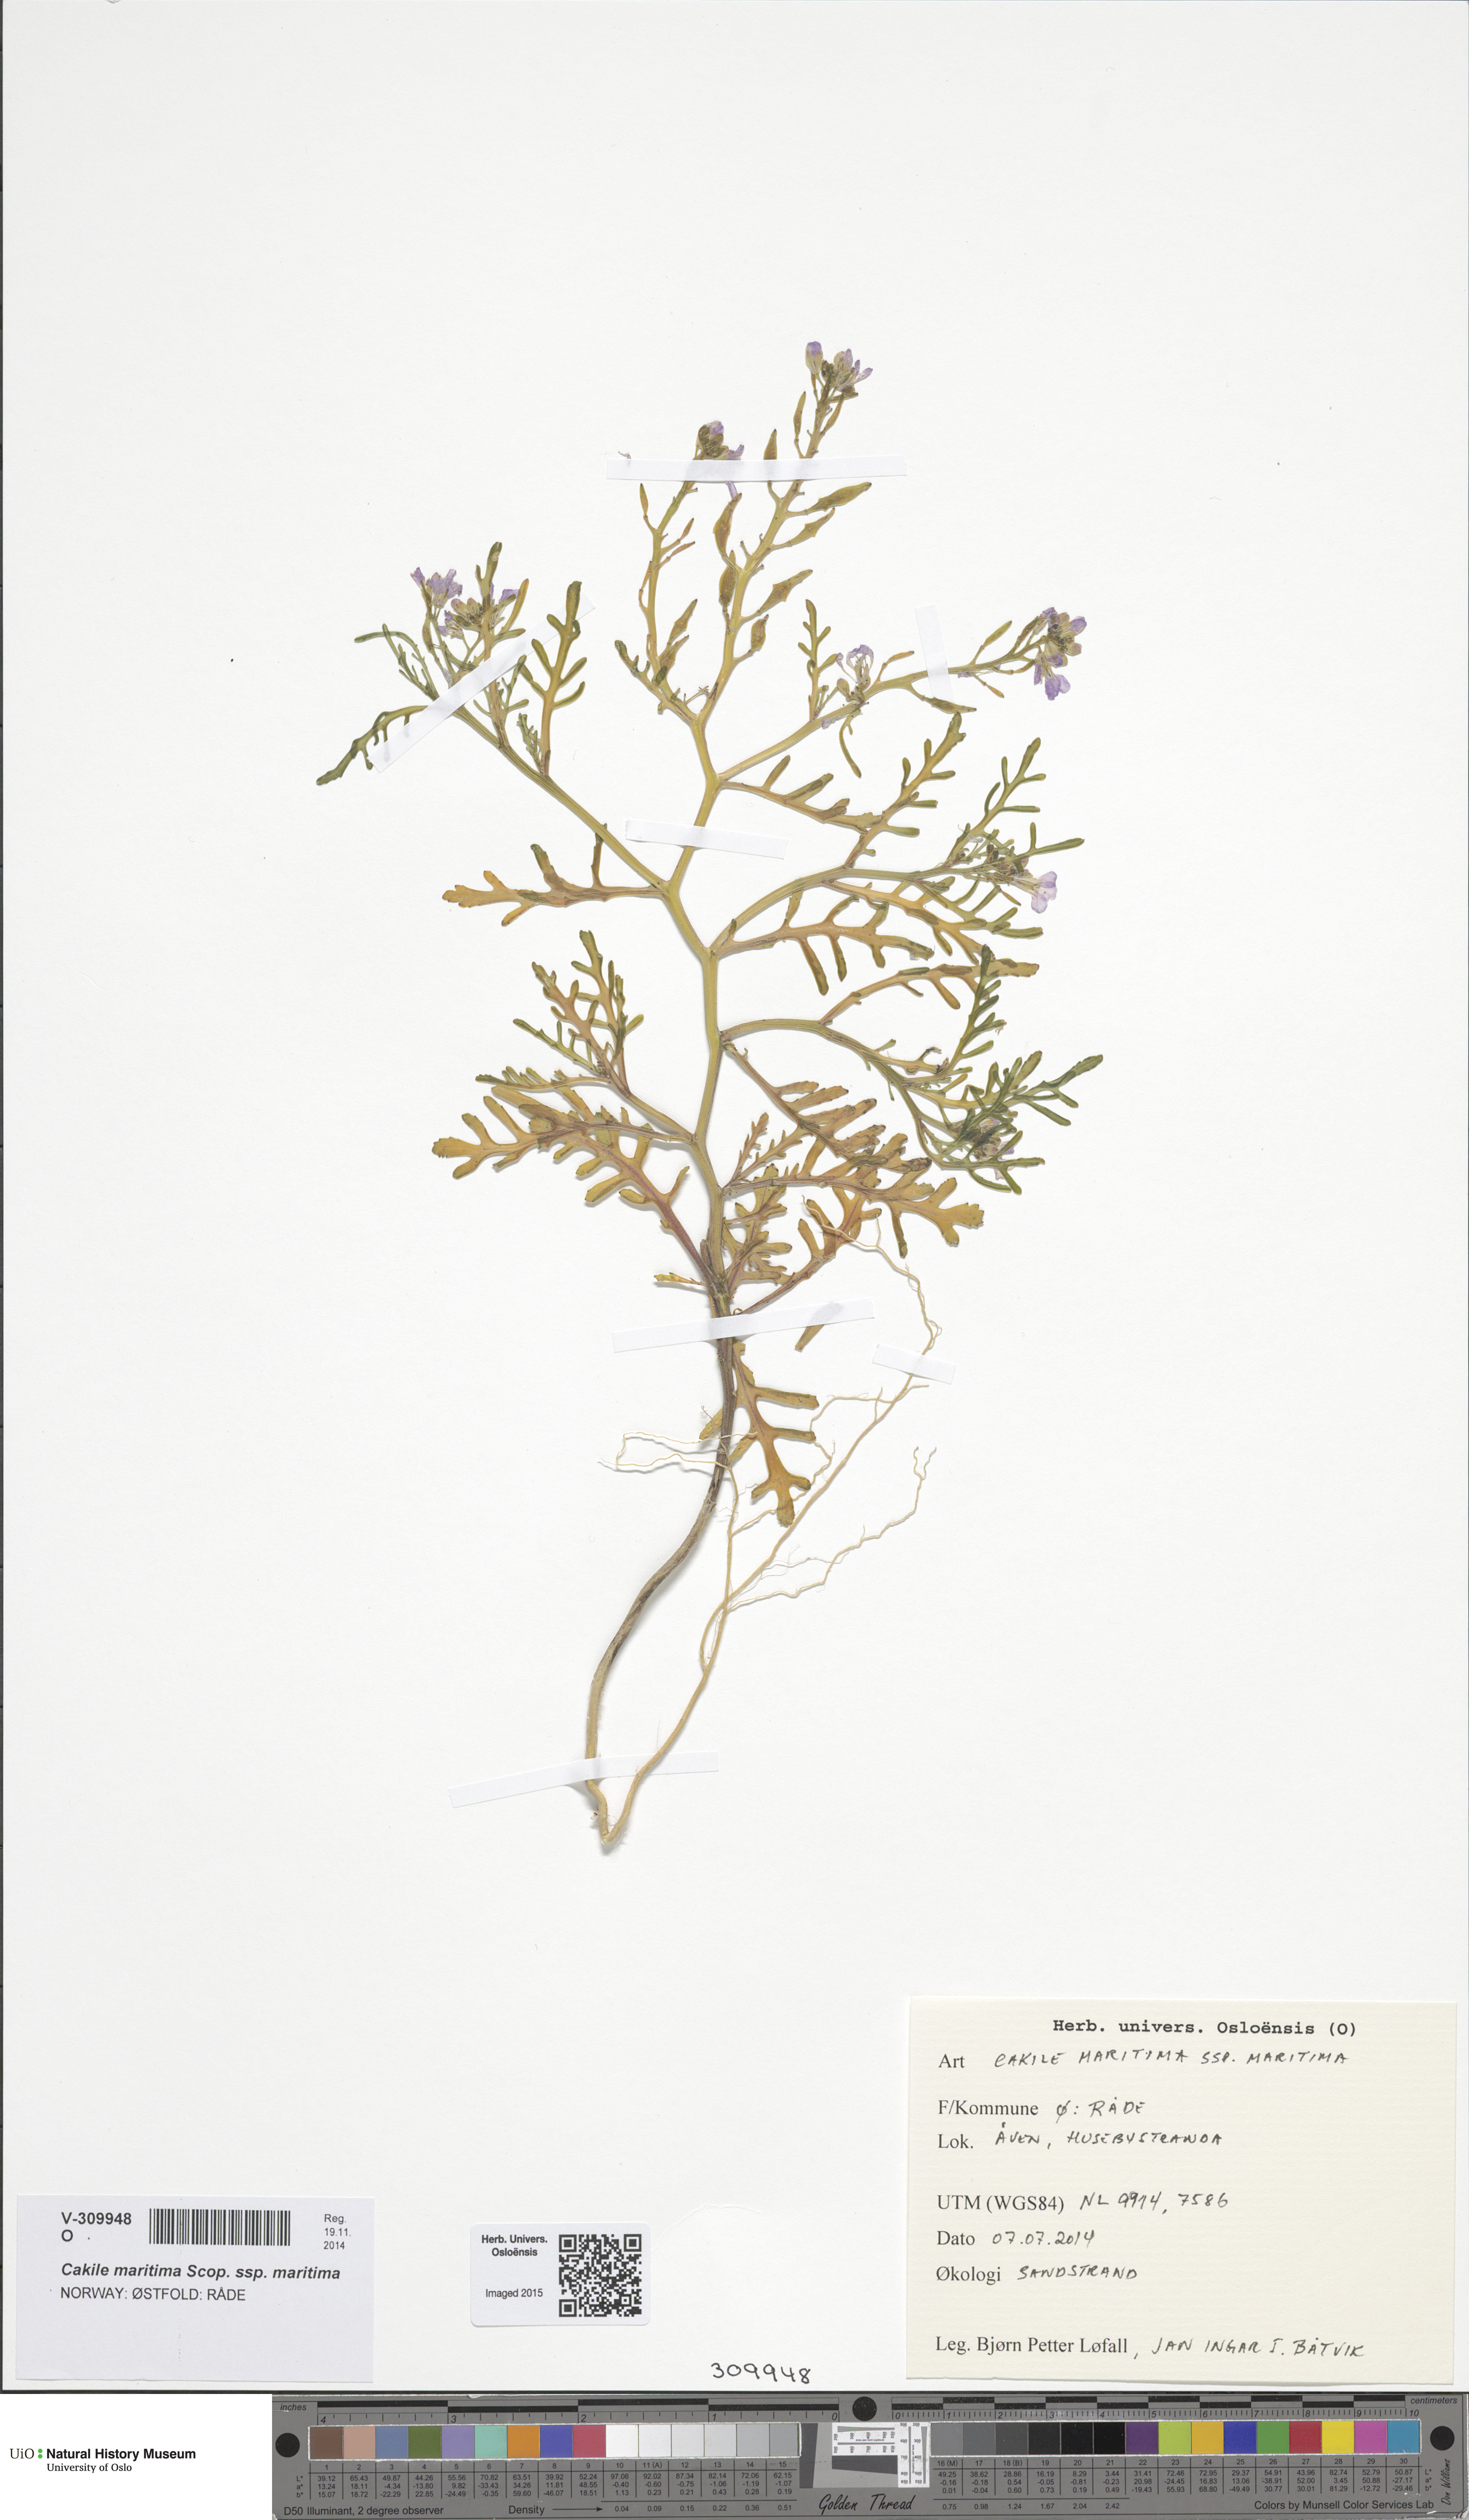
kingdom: Plantae
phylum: Tracheophyta
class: Magnoliopsida
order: Brassicales
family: Brassicaceae
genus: Cakile
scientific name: Cakile maritima
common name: Sea rocket
